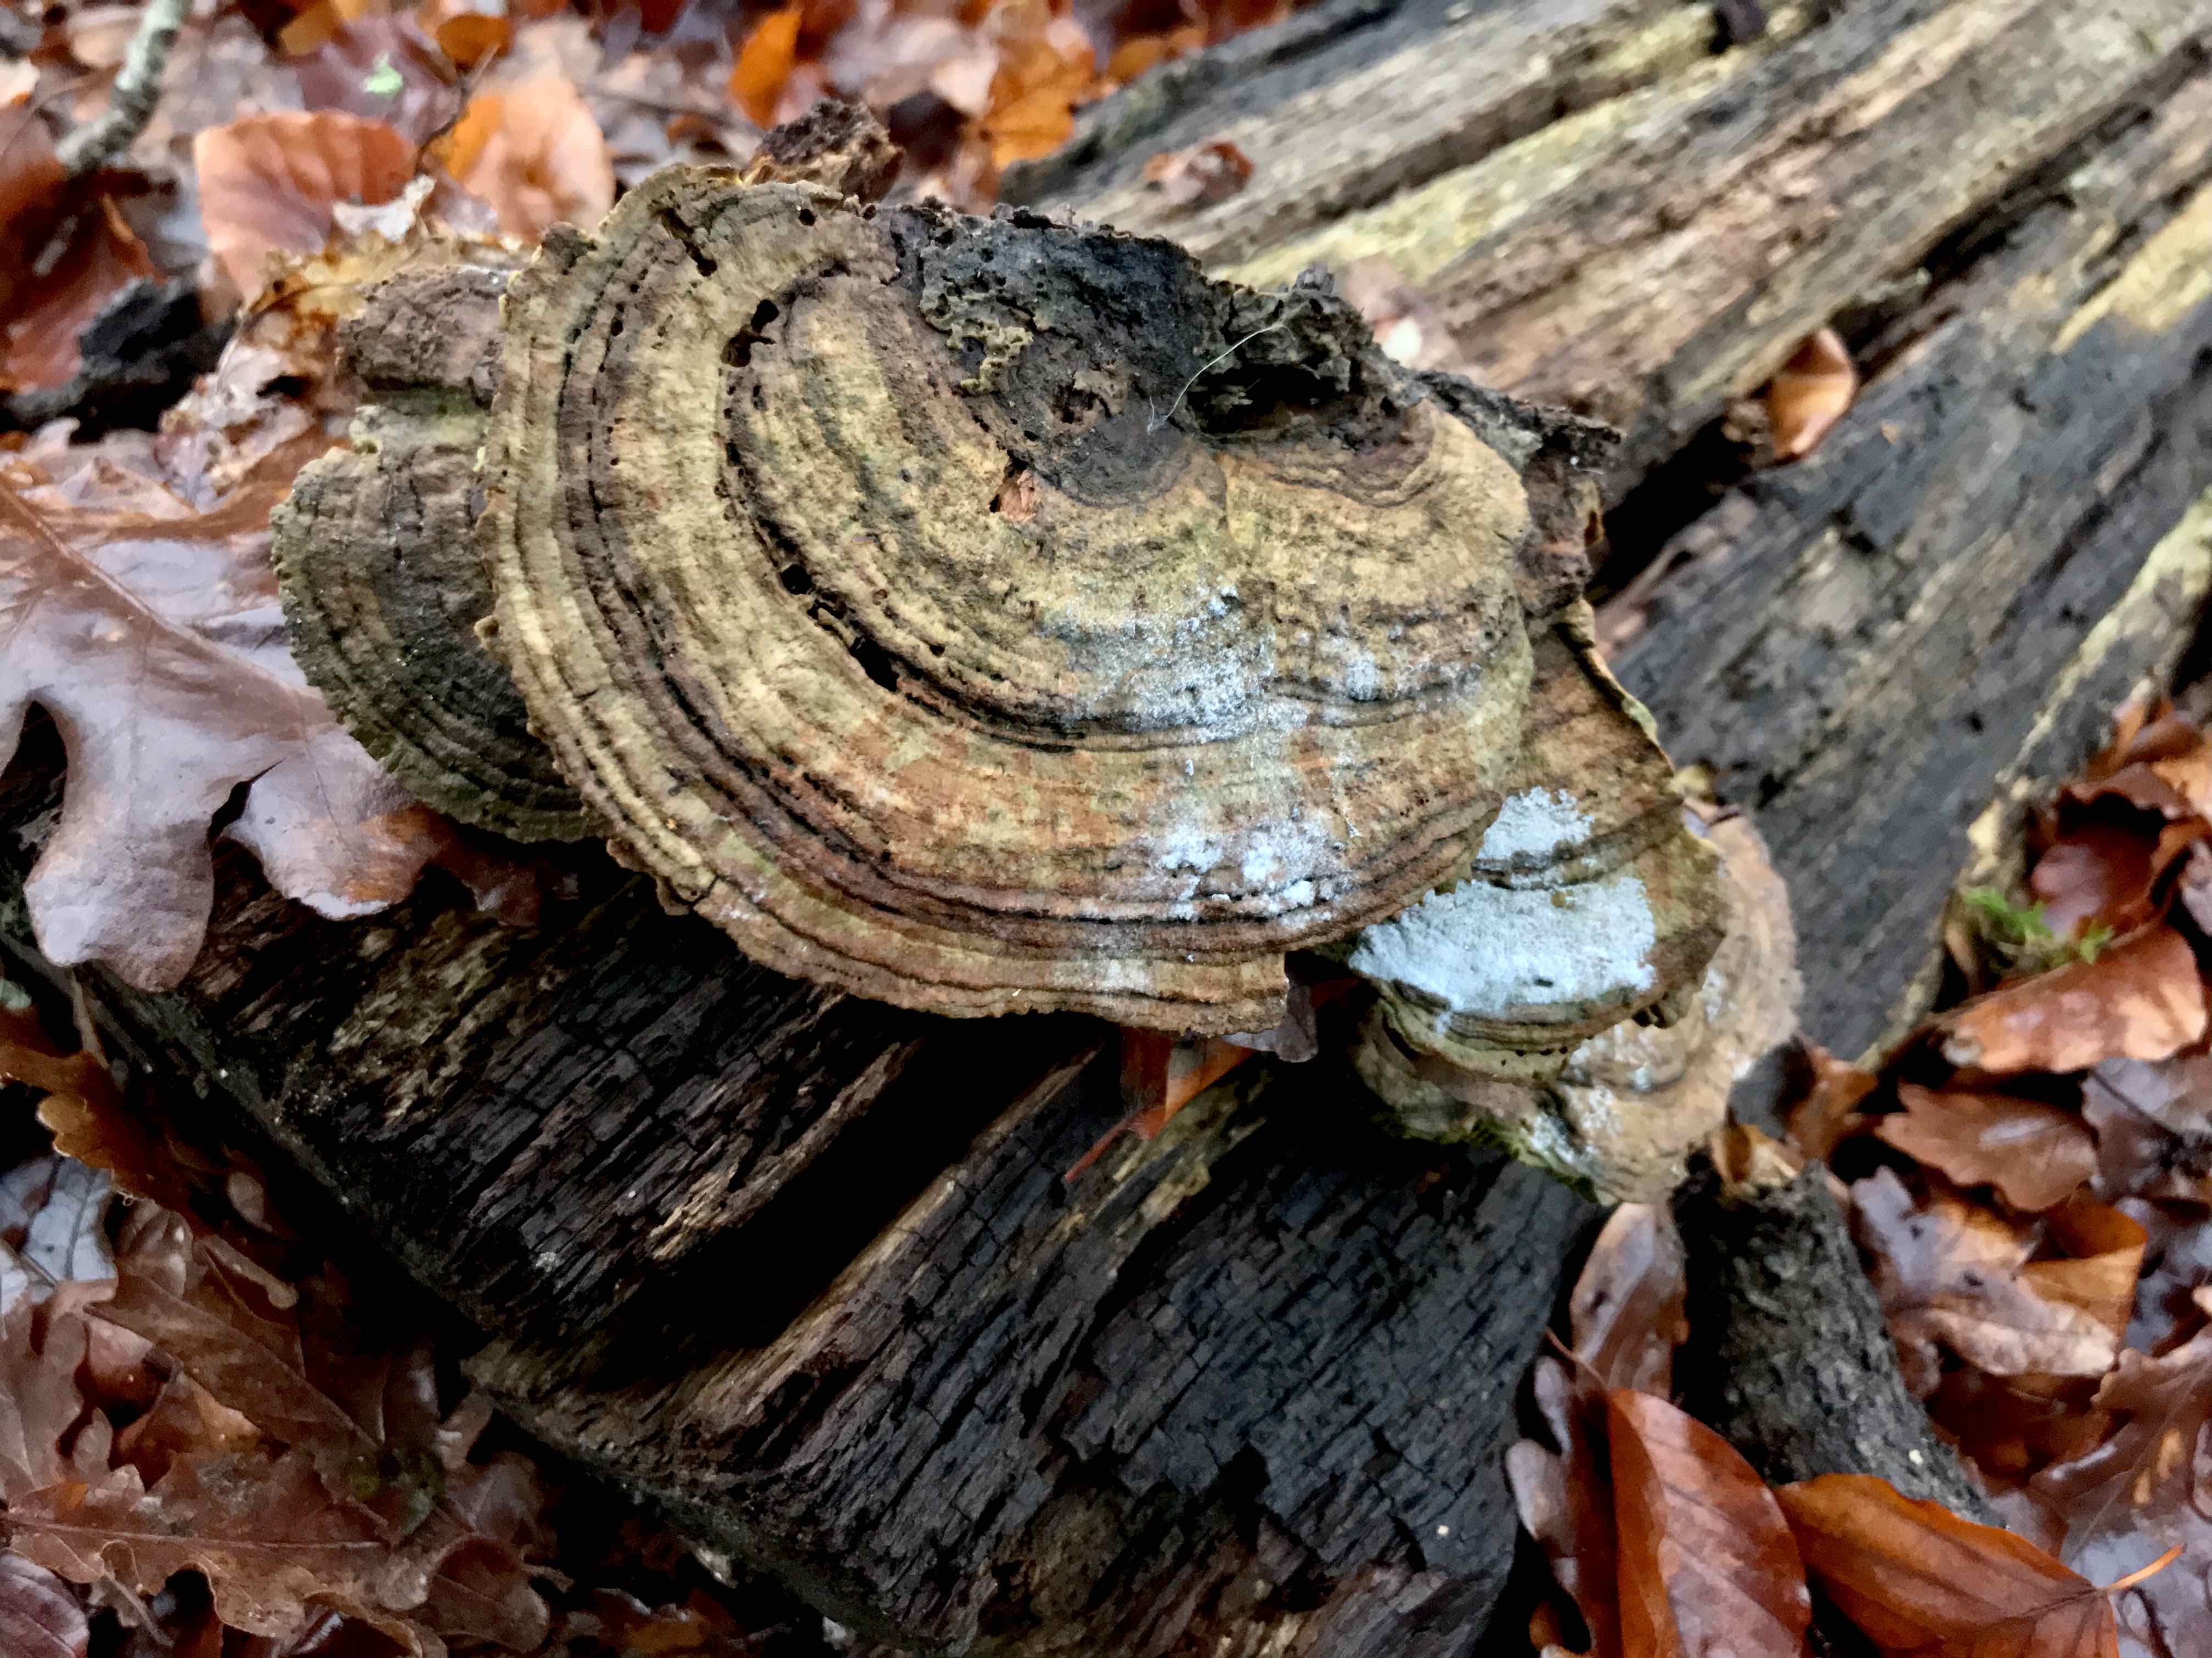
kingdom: Fungi
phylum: Basidiomycota
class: Agaricomycetes
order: Polyporales
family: Fomitopsidaceae
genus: Daedalea
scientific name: Daedalea quercina
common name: ege-labyrintsvamp
